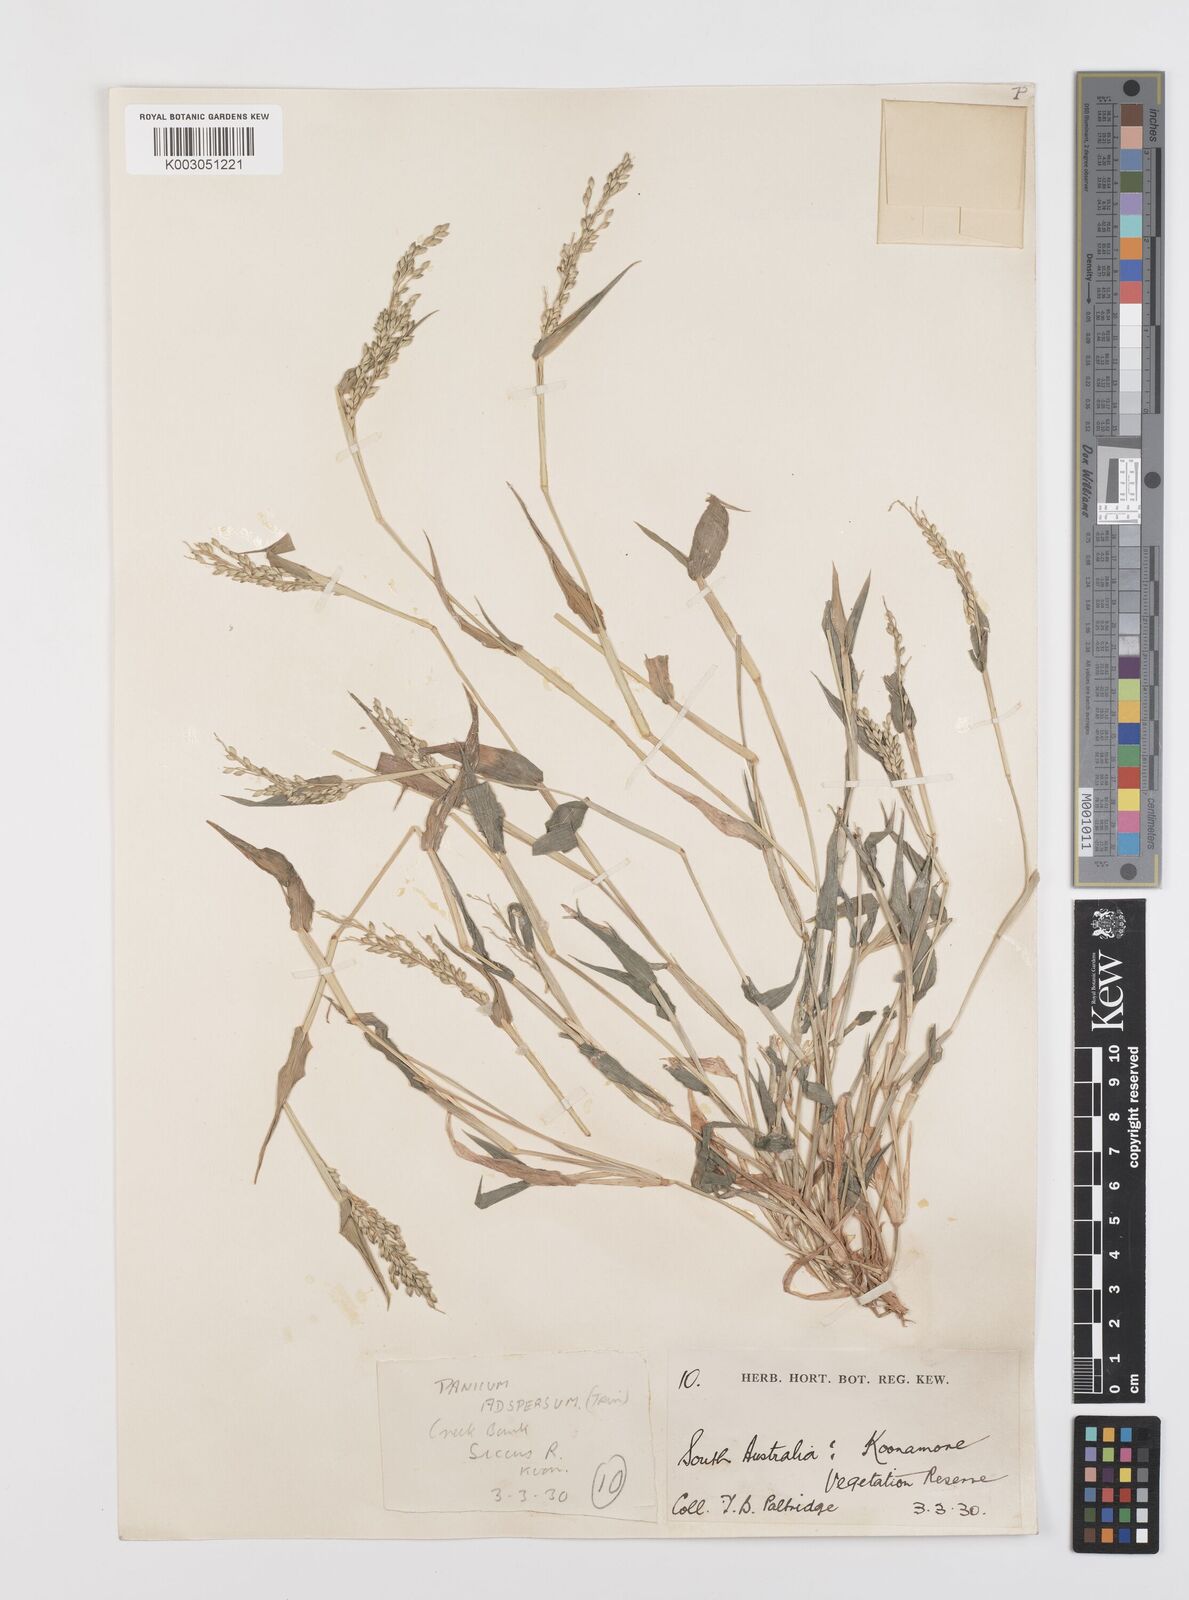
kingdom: Plantae
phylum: Tracheophyta
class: Liliopsida
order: Poales
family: Poaceae
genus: Urochloa
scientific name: Urochloa praetervisa
